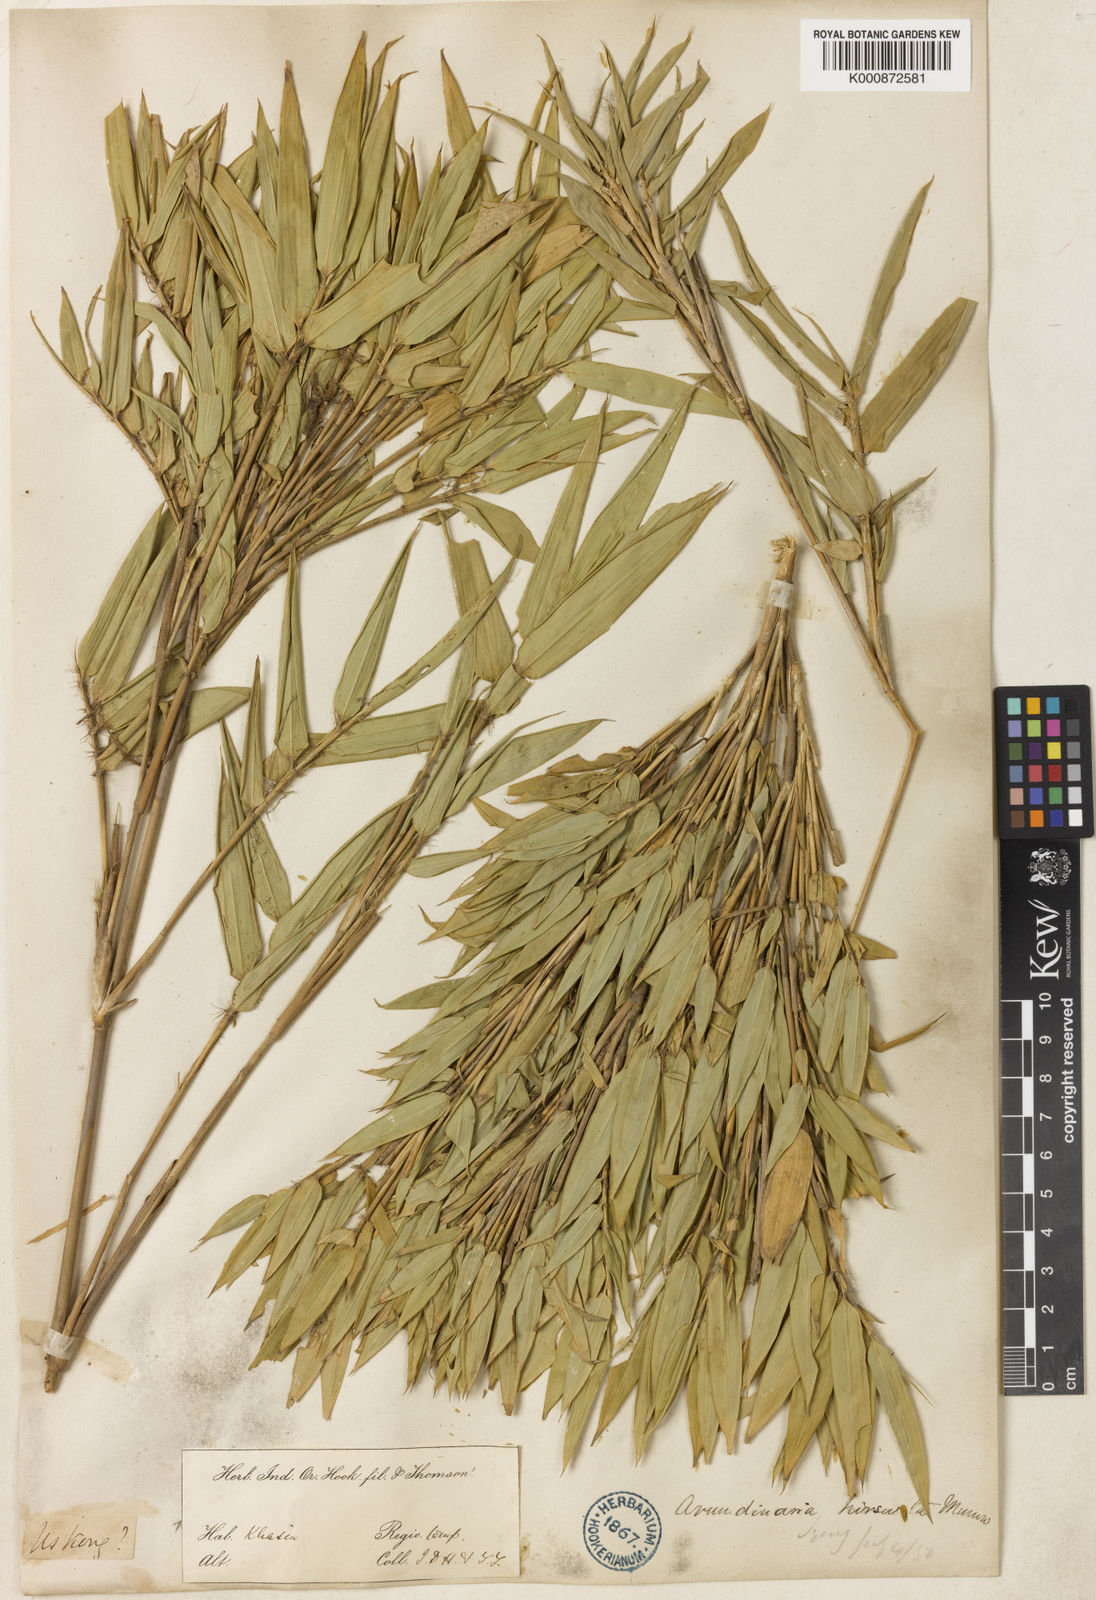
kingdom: Plantae
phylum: Tracheophyta
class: Liliopsida
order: Poales
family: Poaceae
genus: Yushania
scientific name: Yushania
